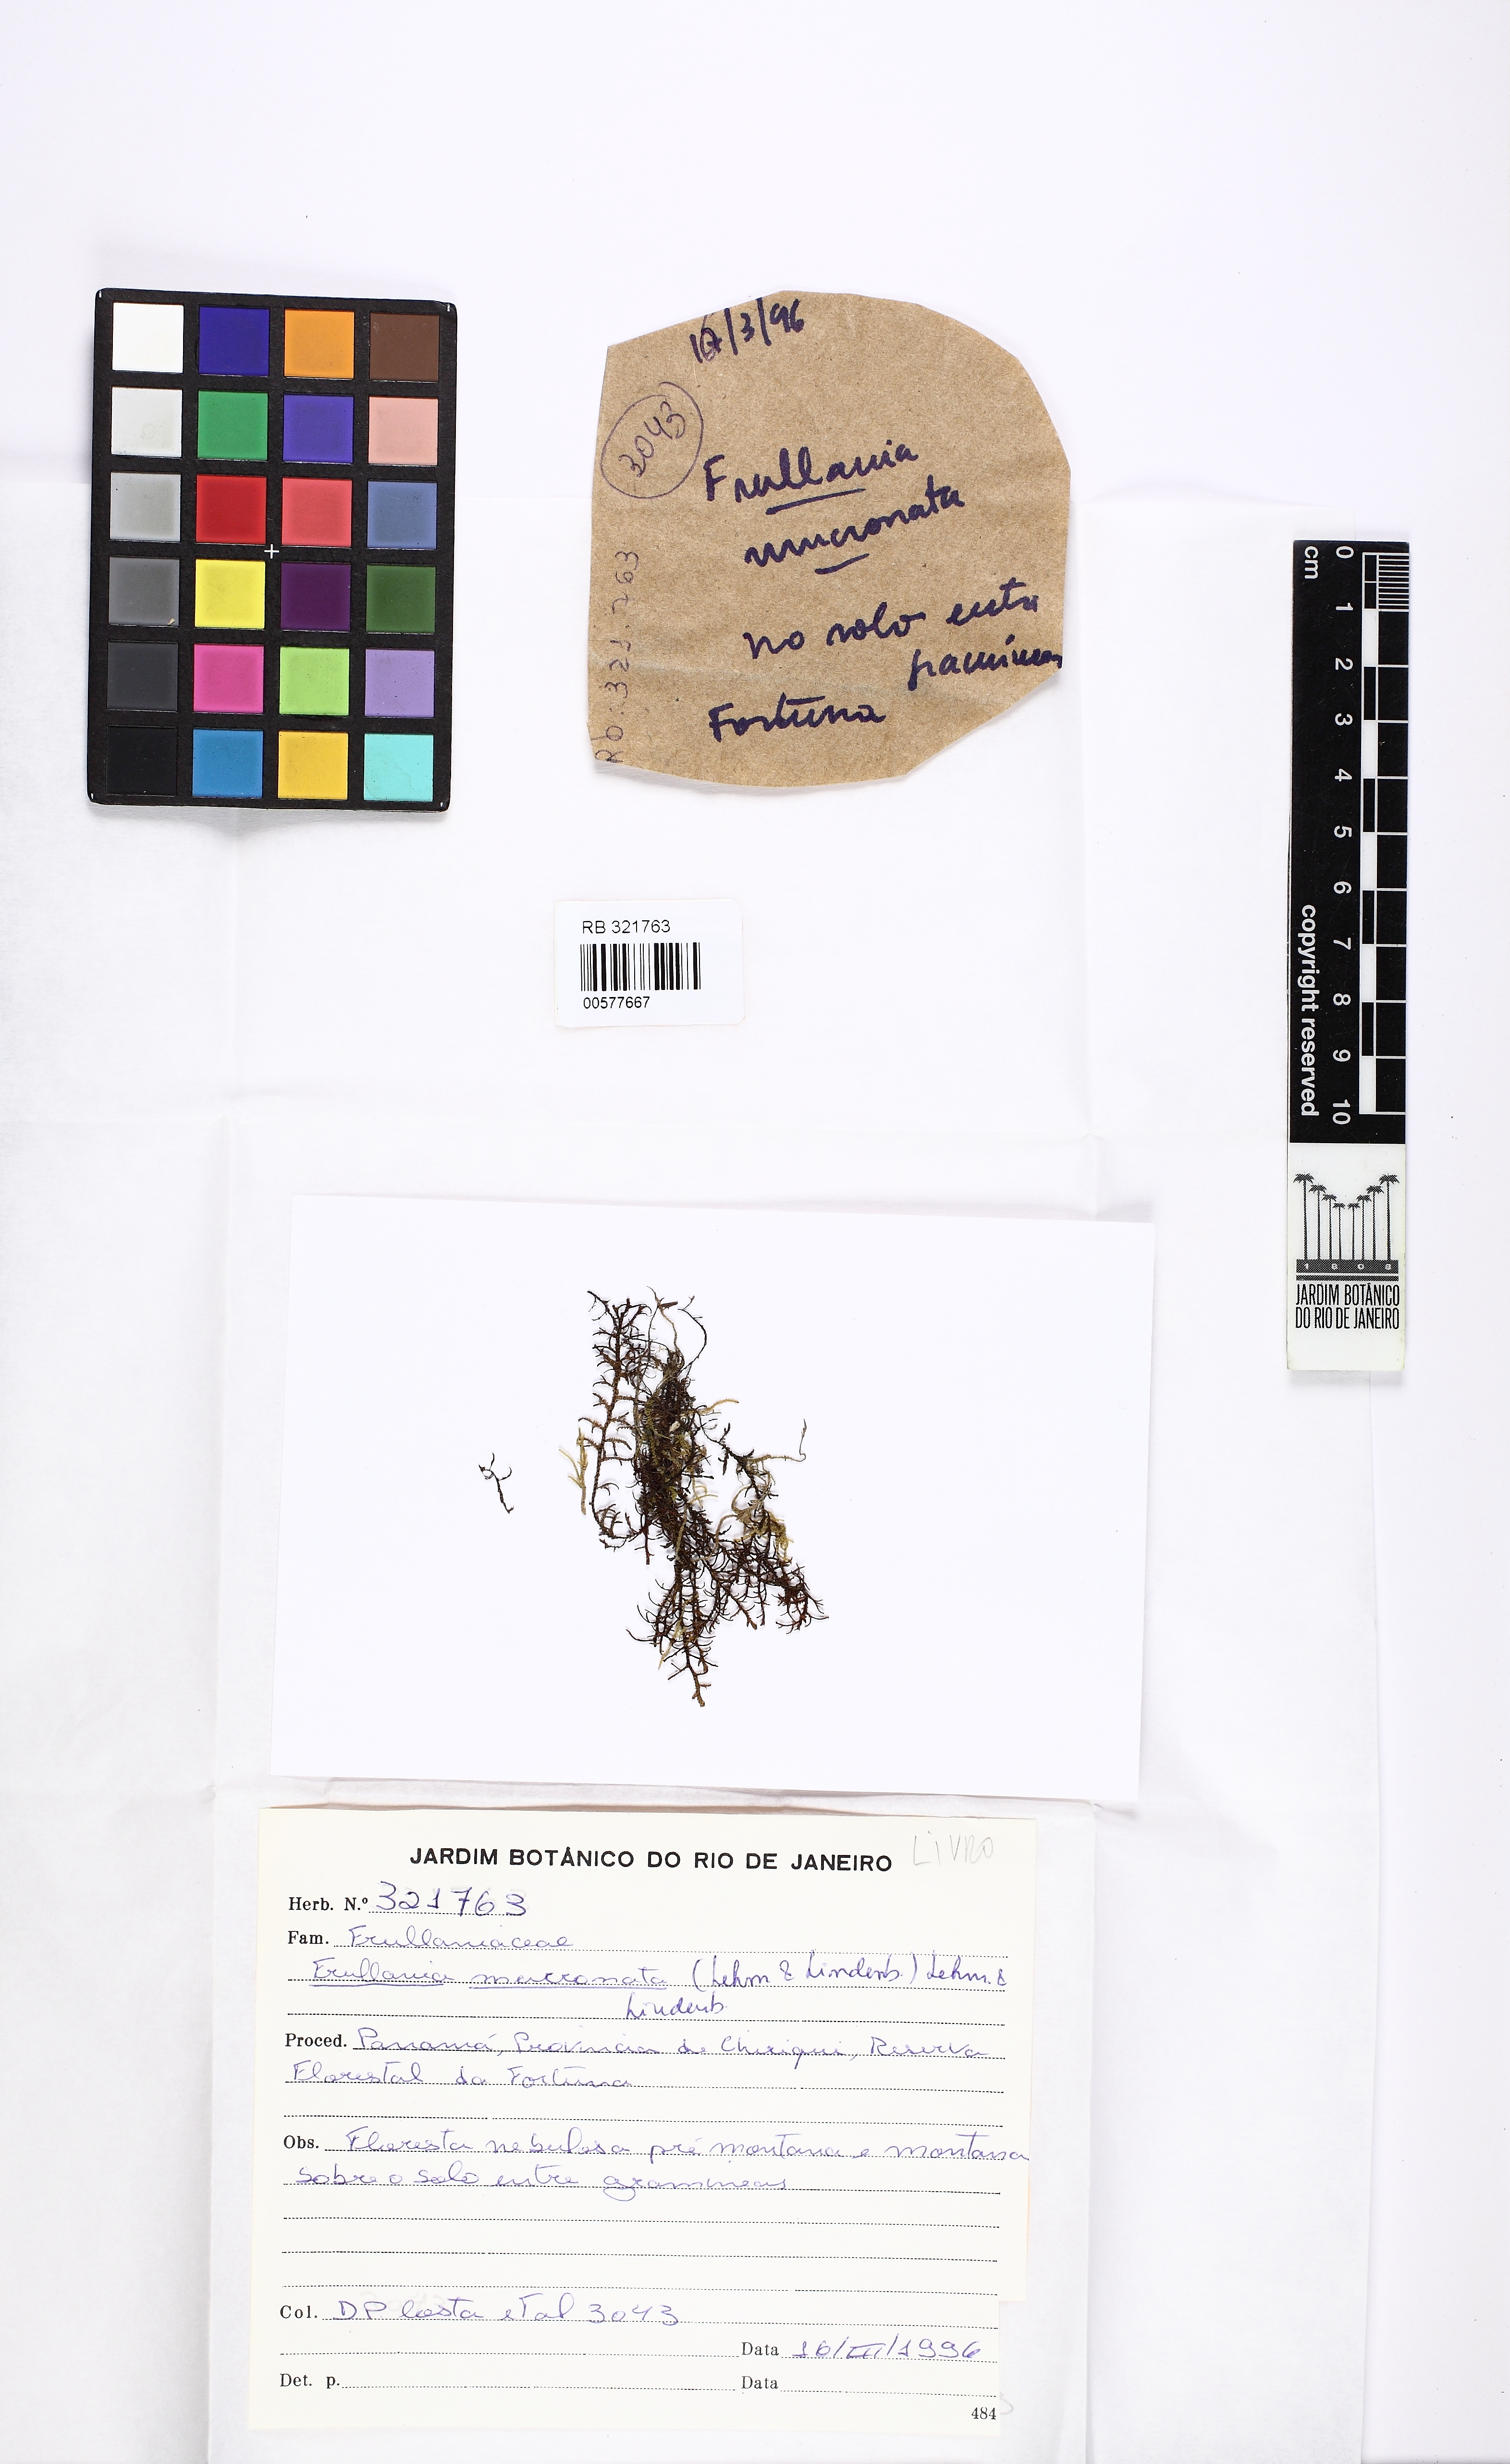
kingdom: Plantae
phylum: Marchantiophyta
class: Jungermanniopsida
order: Porellales
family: Frullaniaceae
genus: Frullania
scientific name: Frullania brasiliensis
